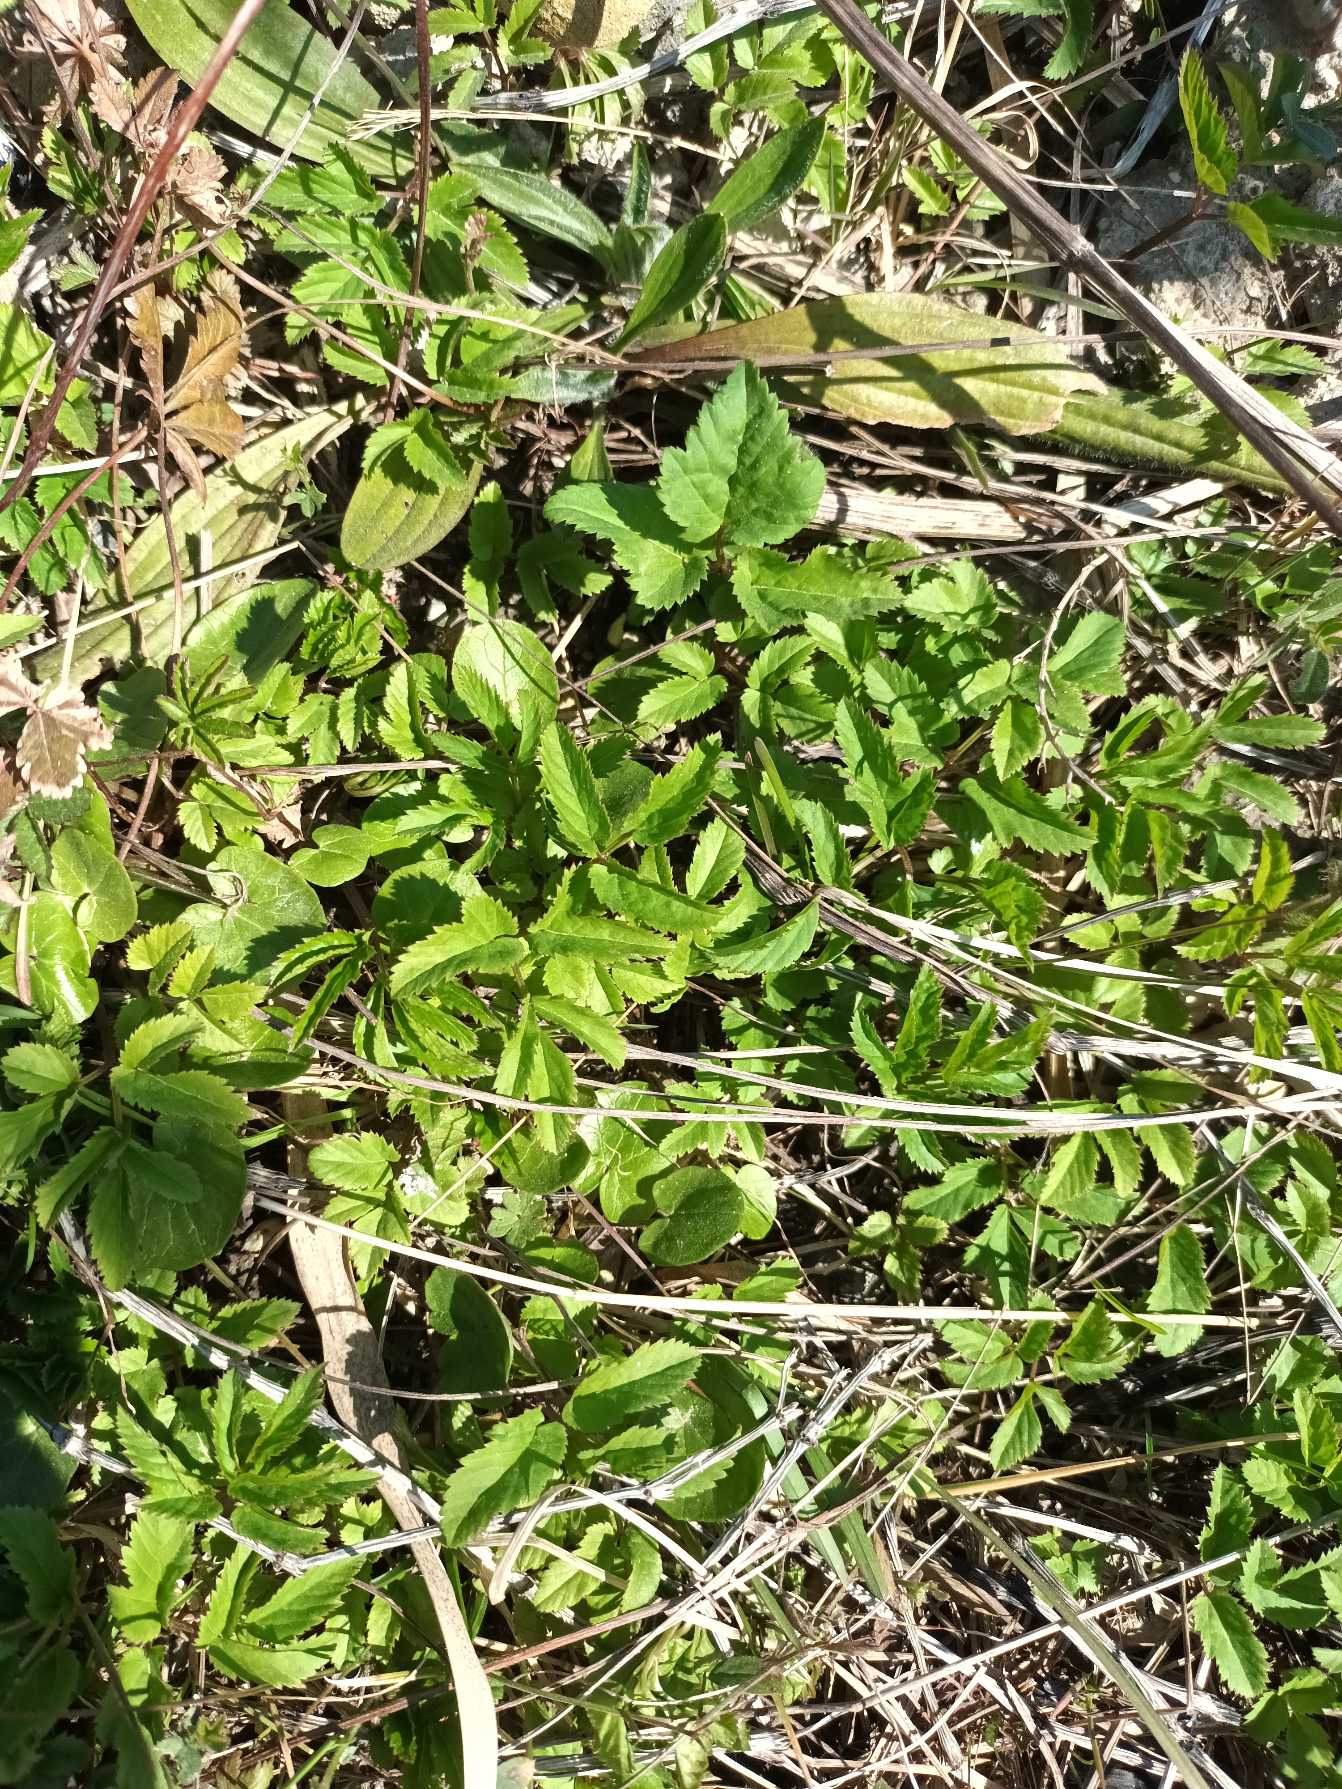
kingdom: Plantae
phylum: Tracheophyta
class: Magnoliopsida
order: Apiales
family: Apiaceae
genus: Aegopodium
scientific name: Aegopodium podagraria
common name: Skvalderkål
